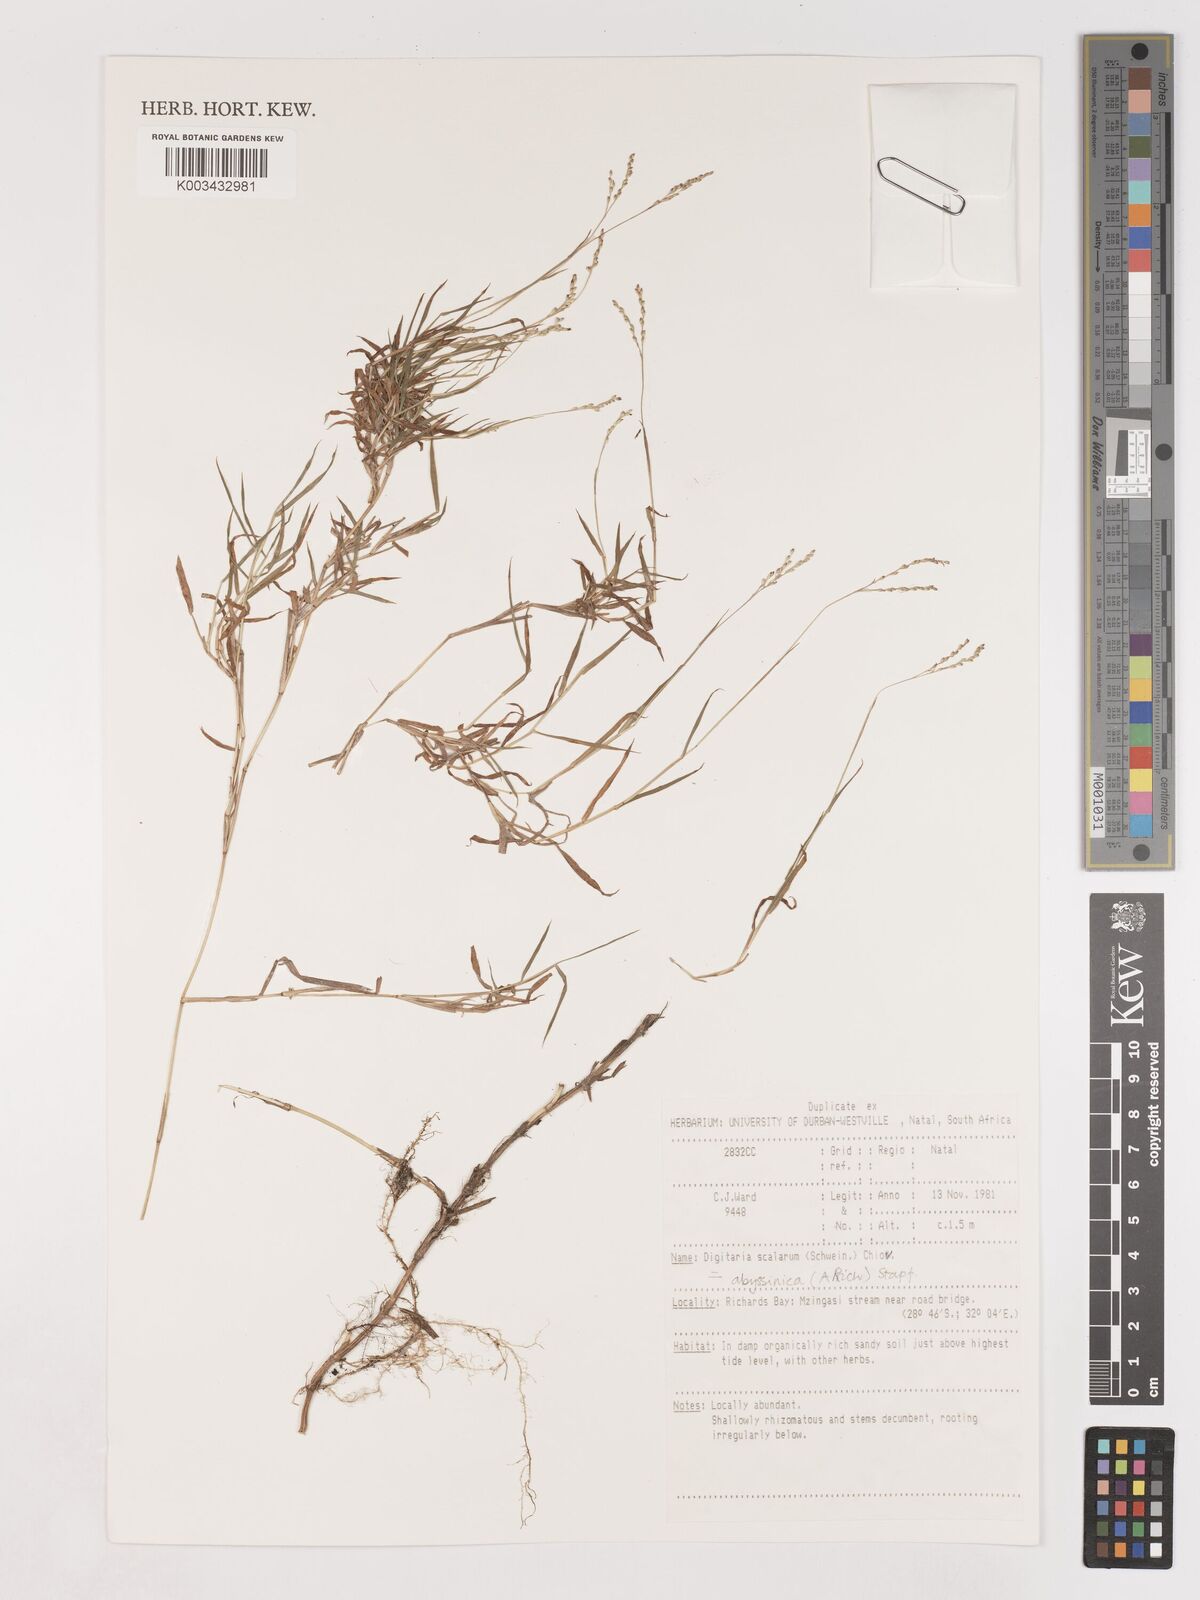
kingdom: Plantae
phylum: Tracheophyta
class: Liliopsida
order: Poales
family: Poaceae
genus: Digitaria
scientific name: Digitaria abyssinica
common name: African couchgrass
